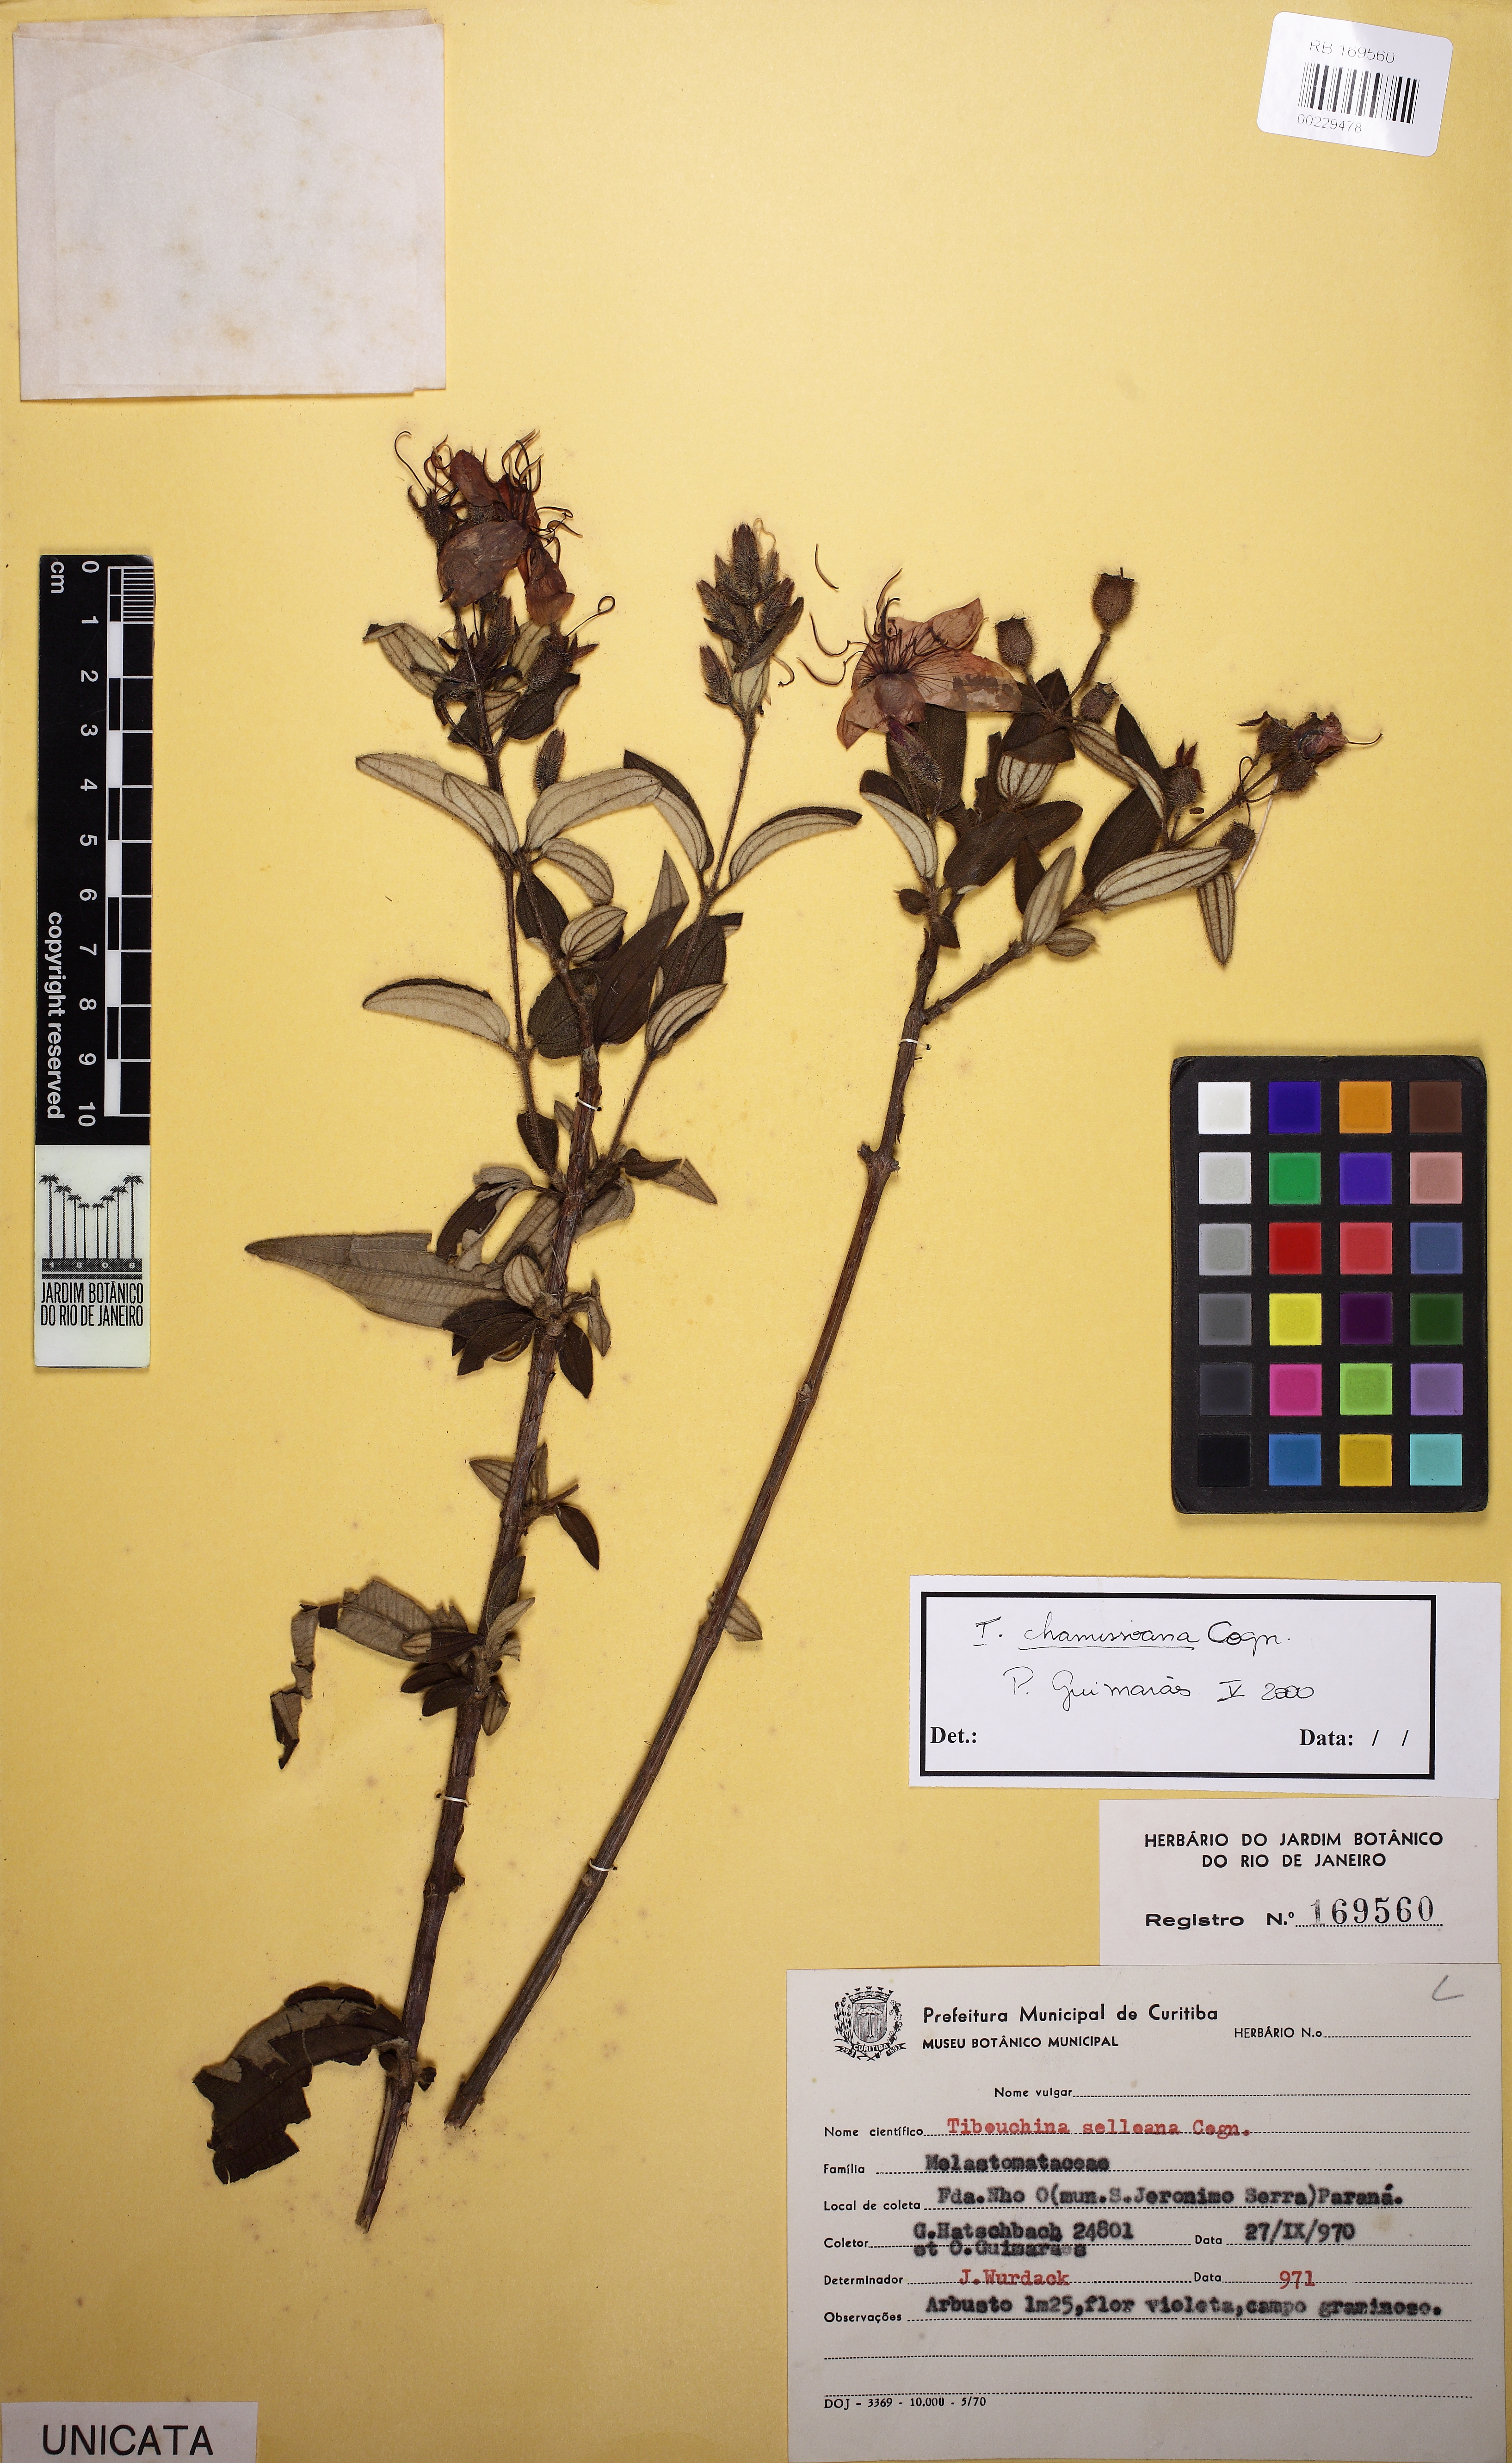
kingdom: Plantae
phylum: Tracheophyta
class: Magnoliopsida
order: Myrtales
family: Melastomataceae
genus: Pleroma
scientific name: Pleroma ochypetalum
